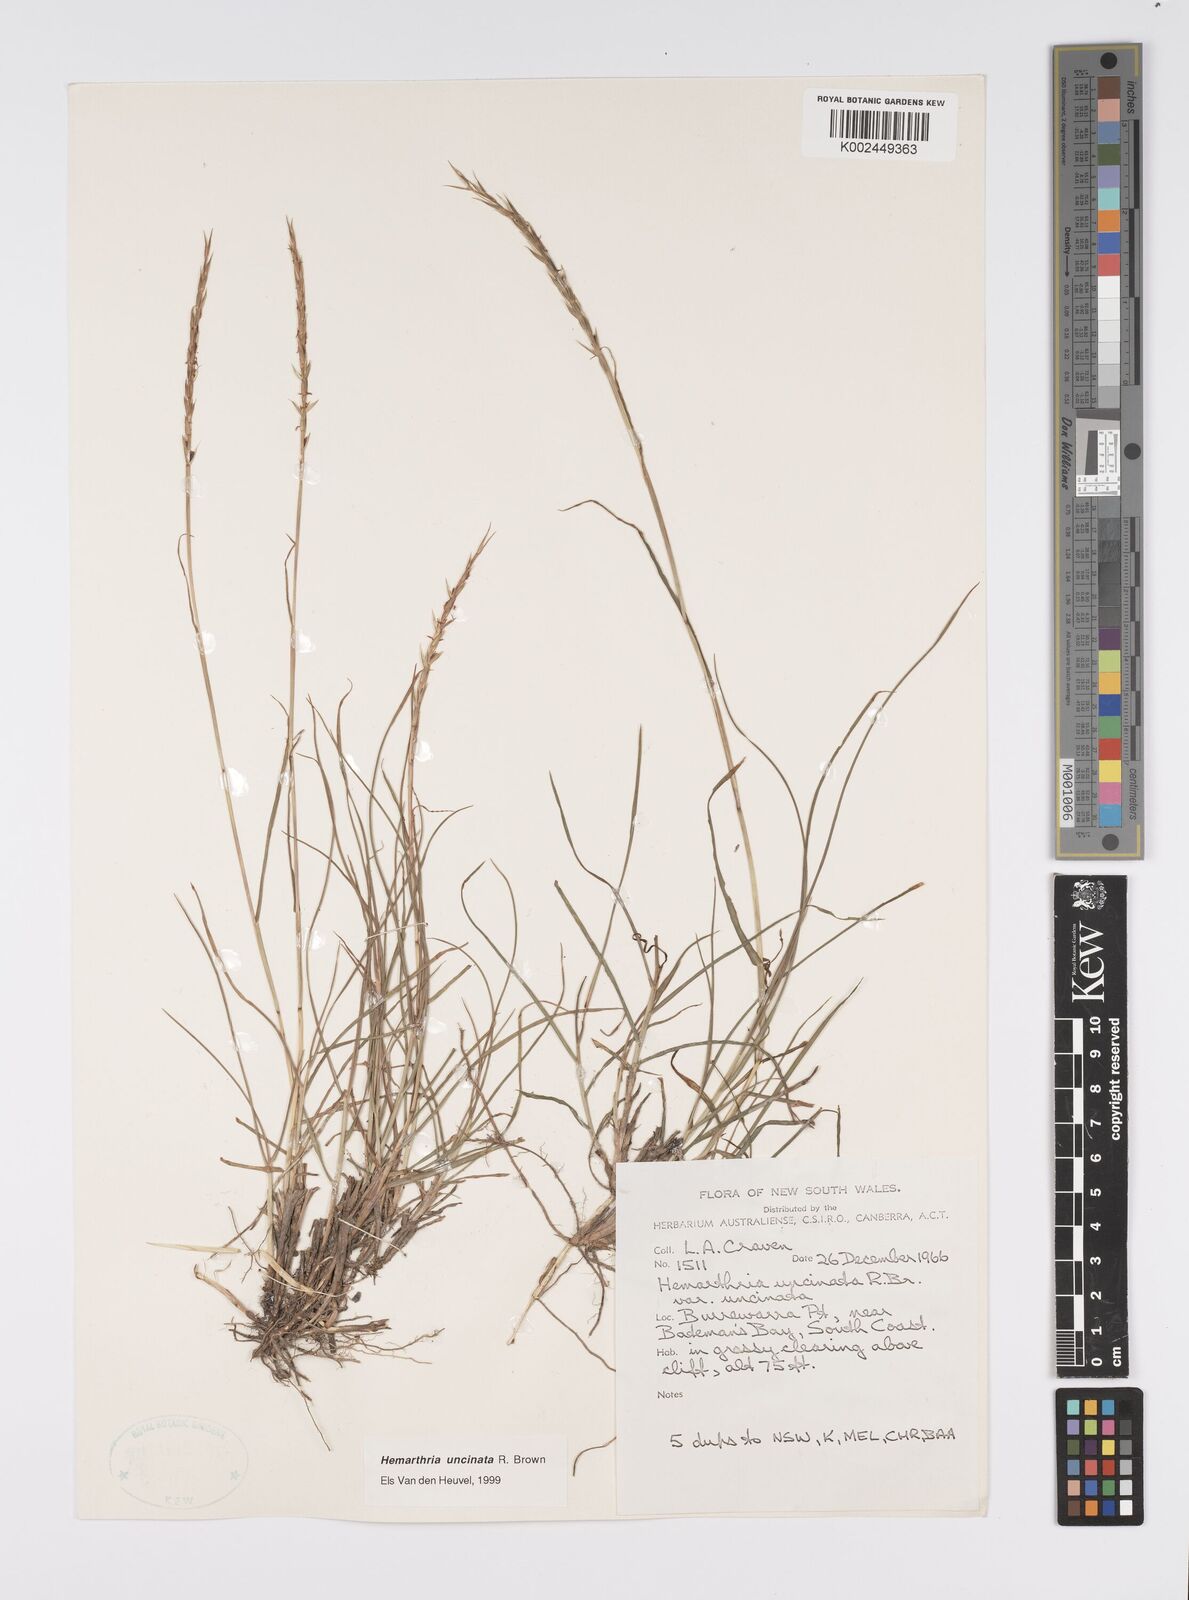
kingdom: Plantae
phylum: Tracheophyta
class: Liliopsida
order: Poales
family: Poaceae
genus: Hemarthria
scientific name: Hemarthria uncinata
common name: Matgrass
